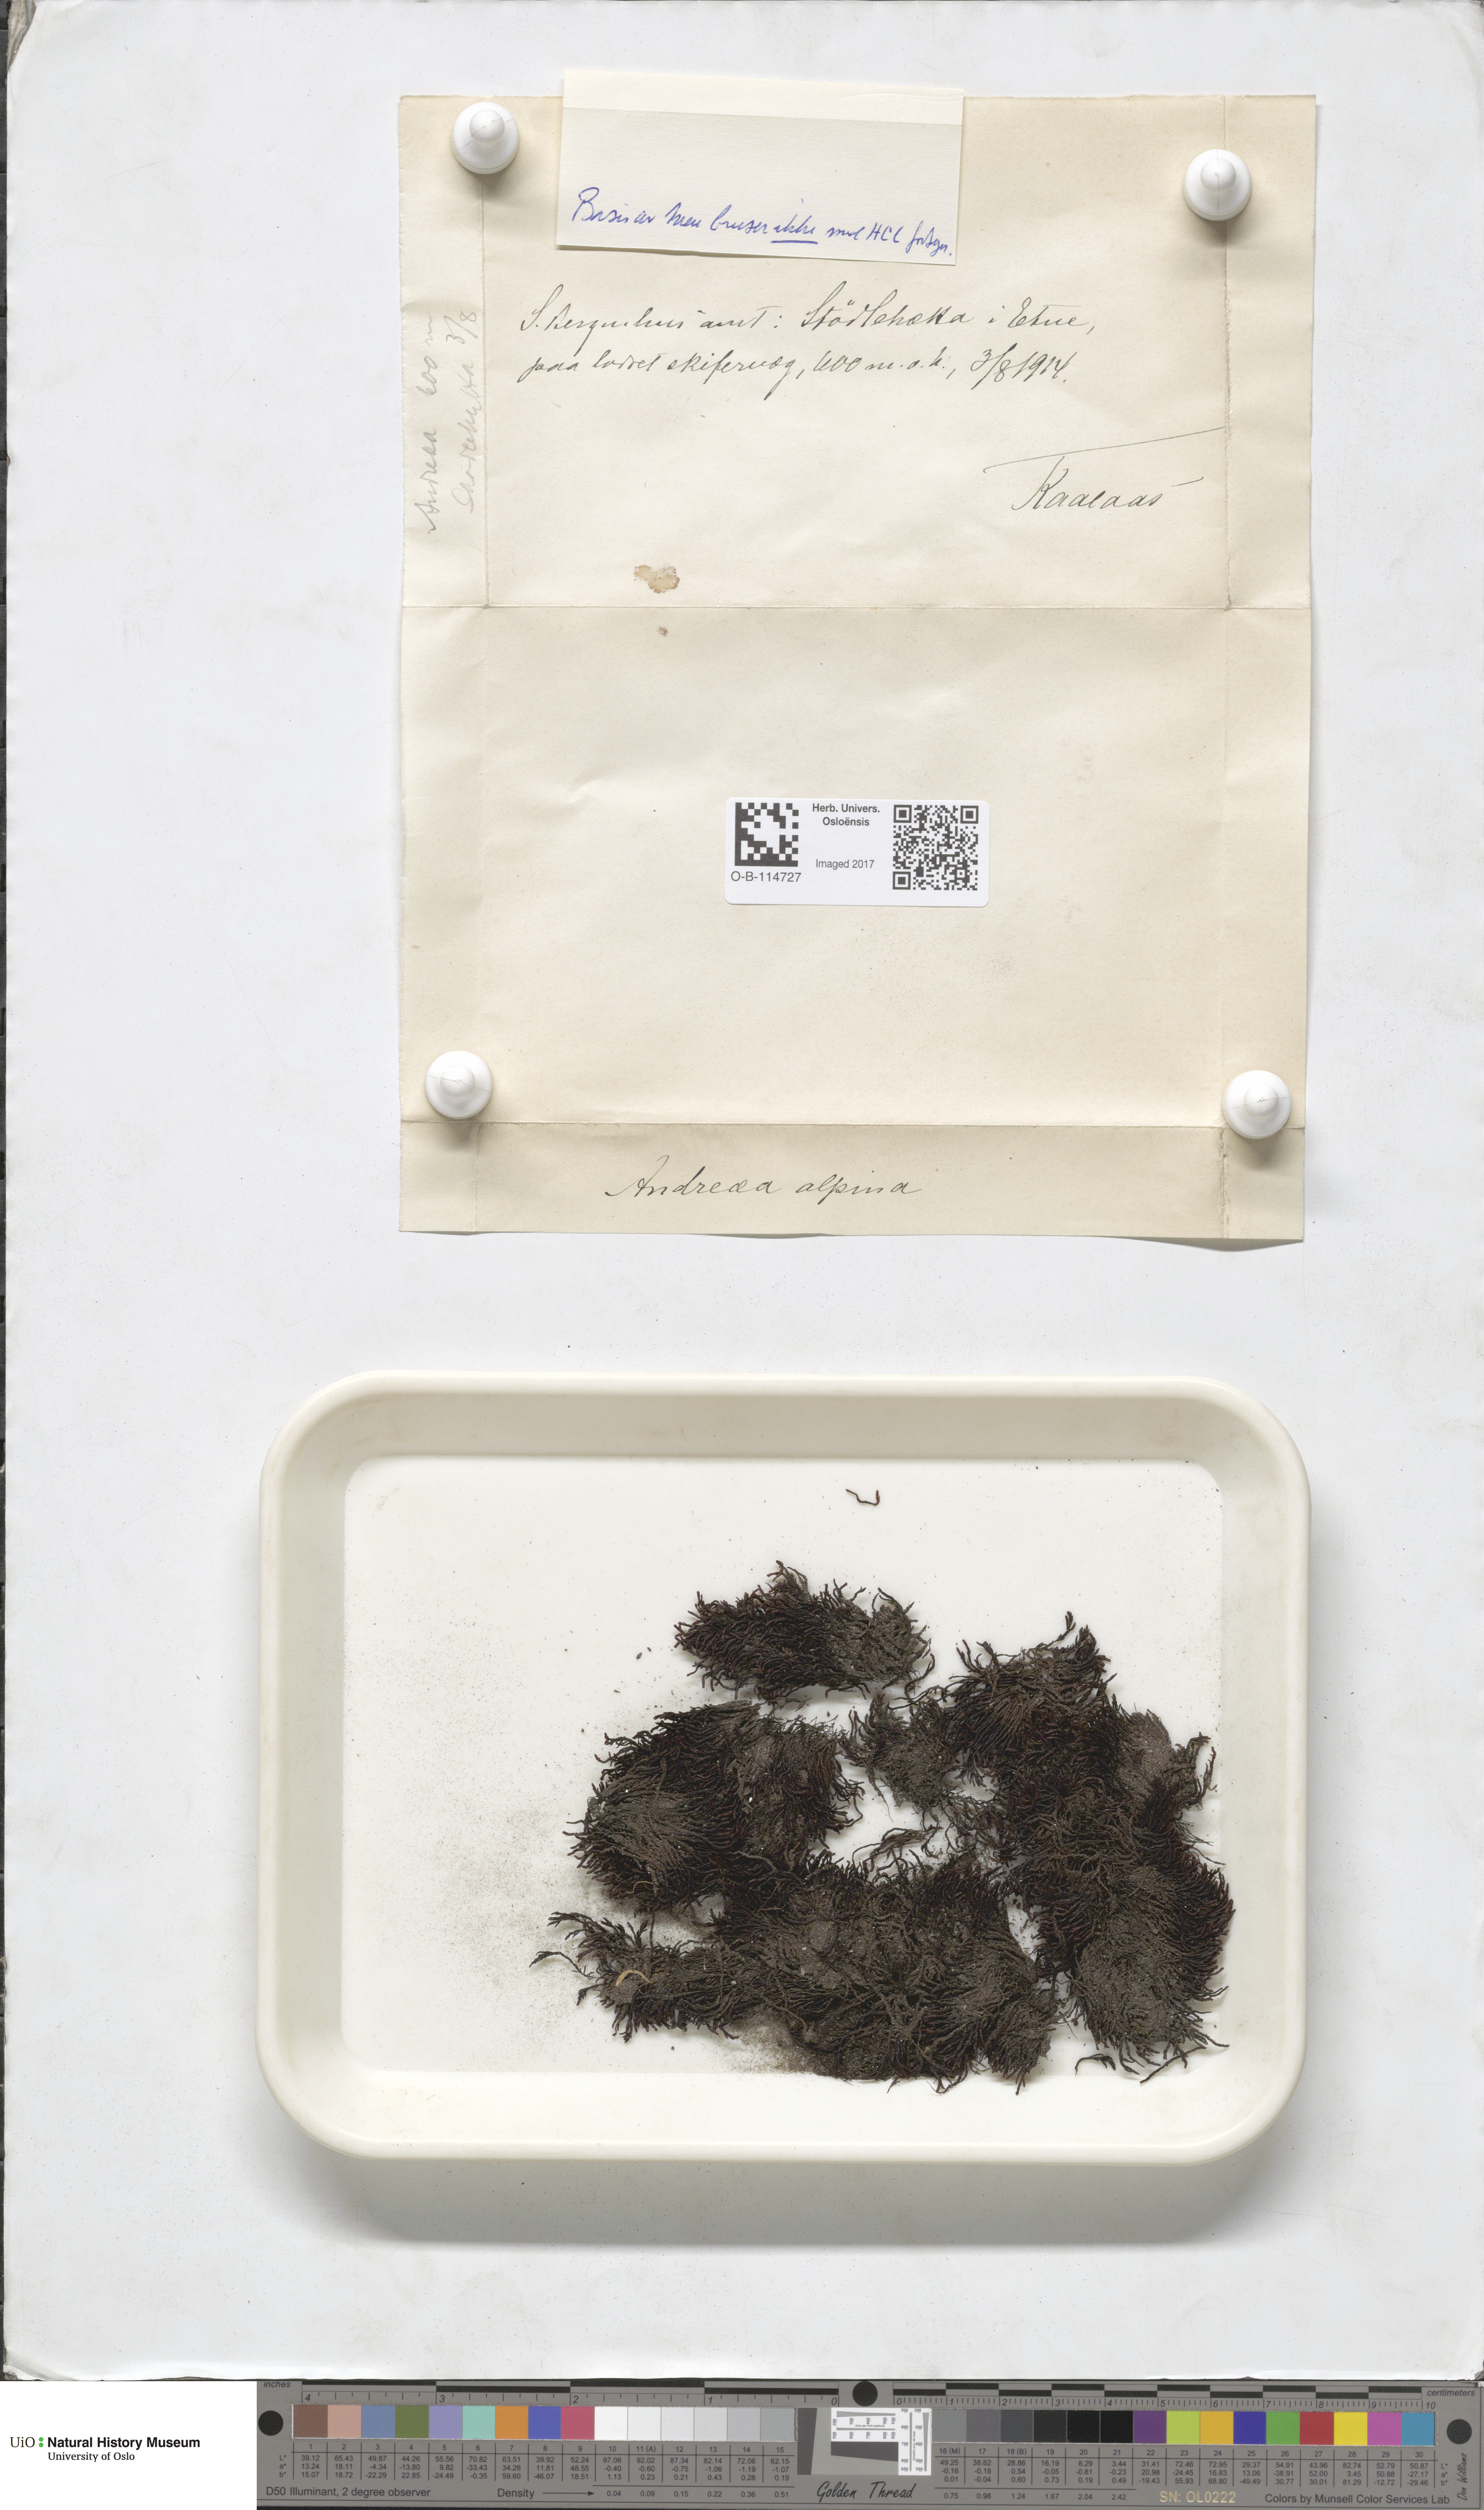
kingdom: Plantae
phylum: Bryophyta
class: Andreaeopsida
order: Andreaeales
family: Andreaeaceae
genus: Andreaea
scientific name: Andreaea hookeri
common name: Alpine rock-moss
